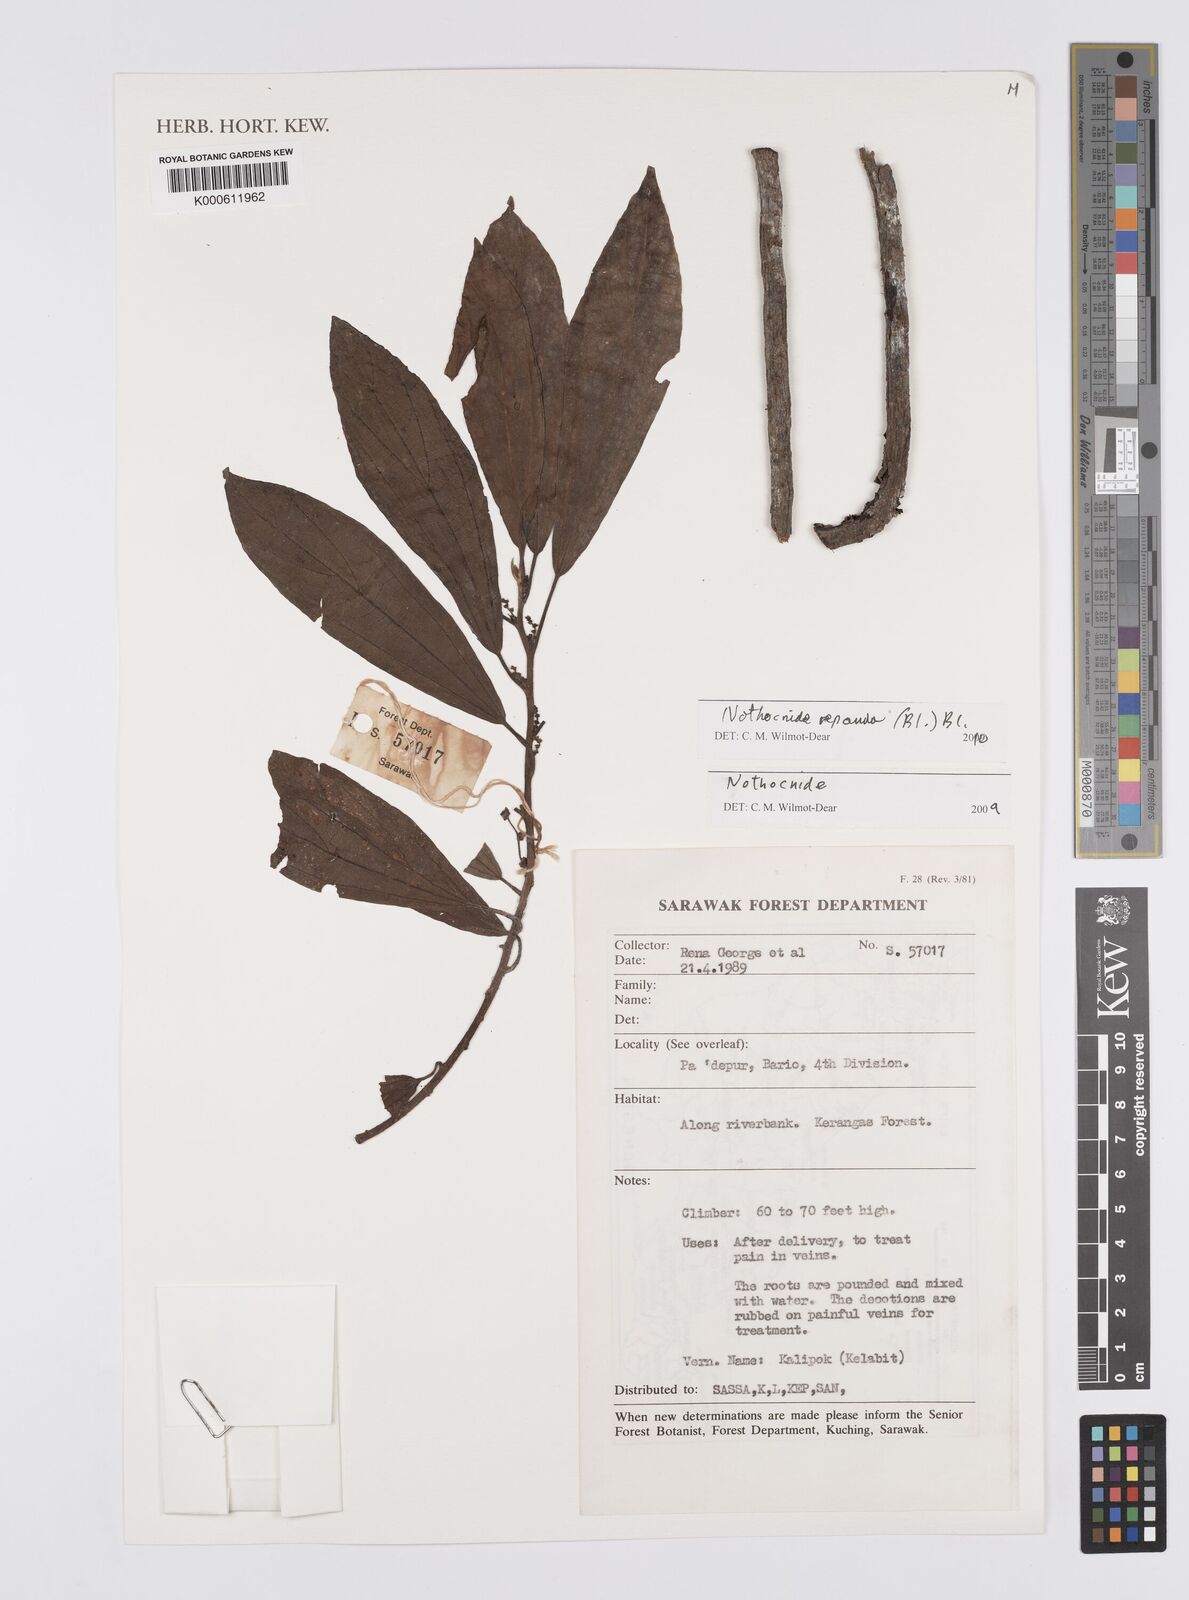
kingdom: Plantae
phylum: Tracheophyta
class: Magnoliopsida
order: Rosales
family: Urticaceae
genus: Nothocnide
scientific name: Nothocnide repanda
